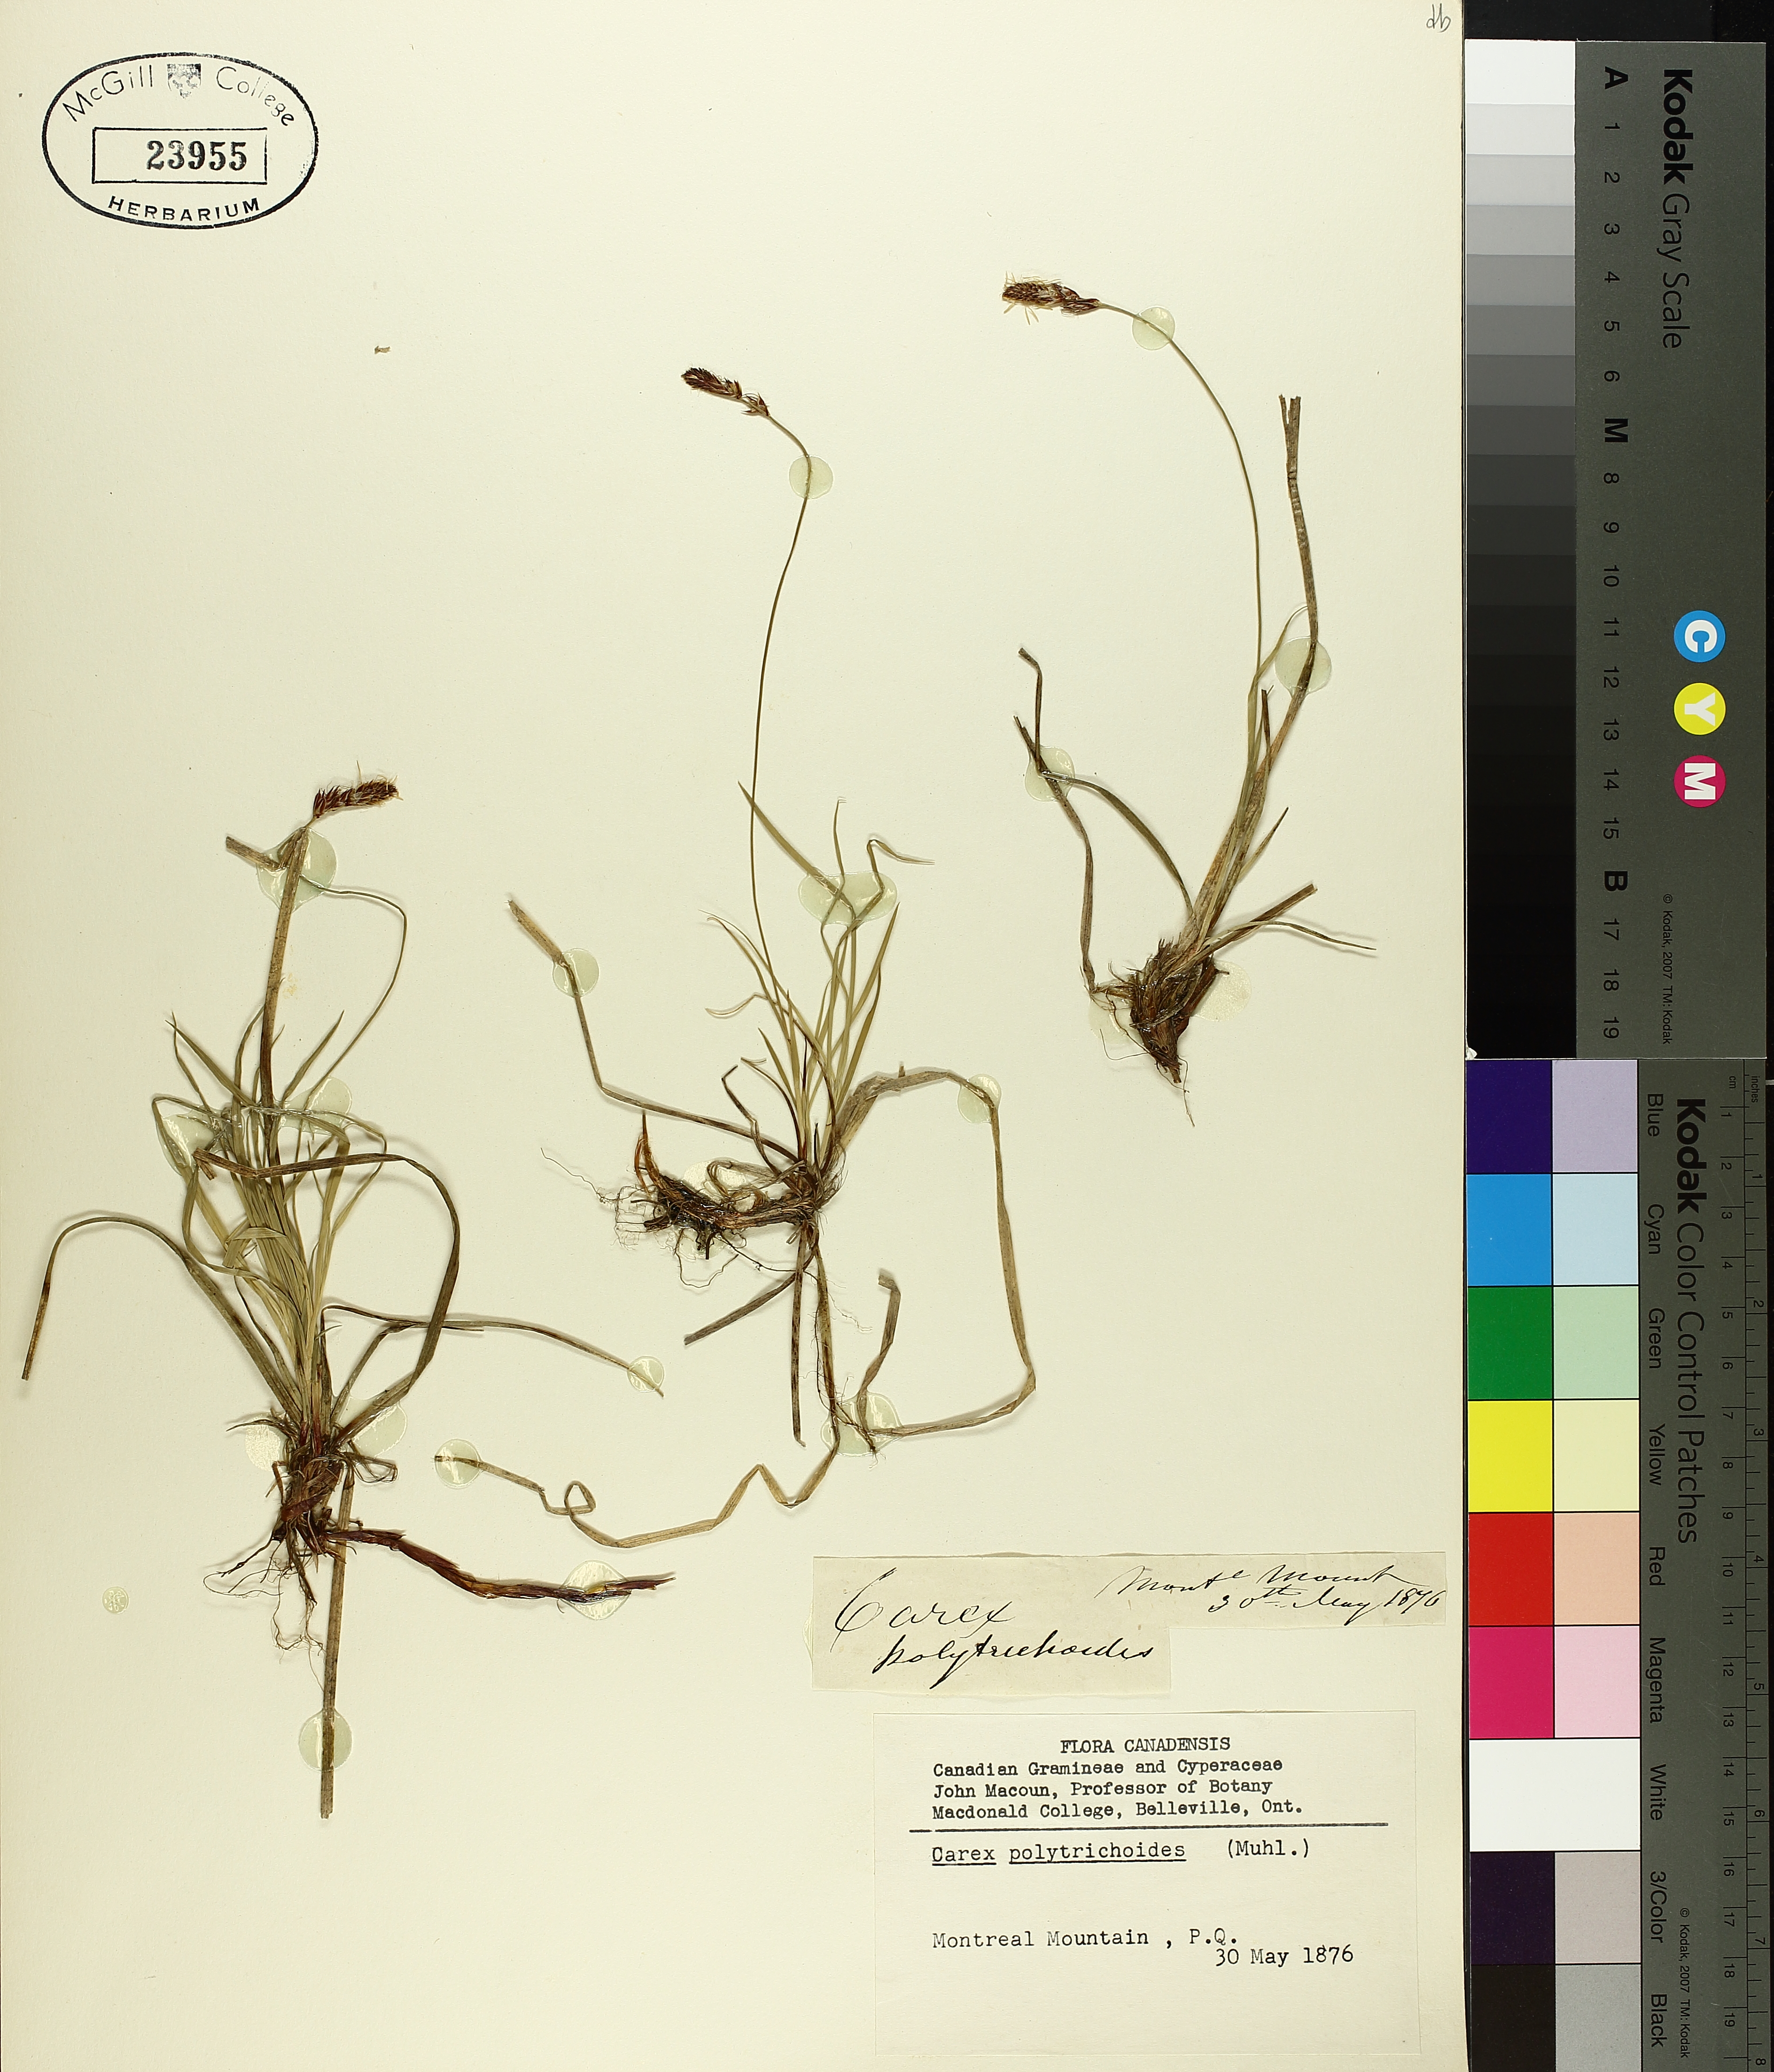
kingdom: Plantae
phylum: Tracheophyta
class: Liliopsida
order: Poales
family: Cyperaceae
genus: Carex
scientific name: Carex leptalea
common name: Bristly-stalked sedge
